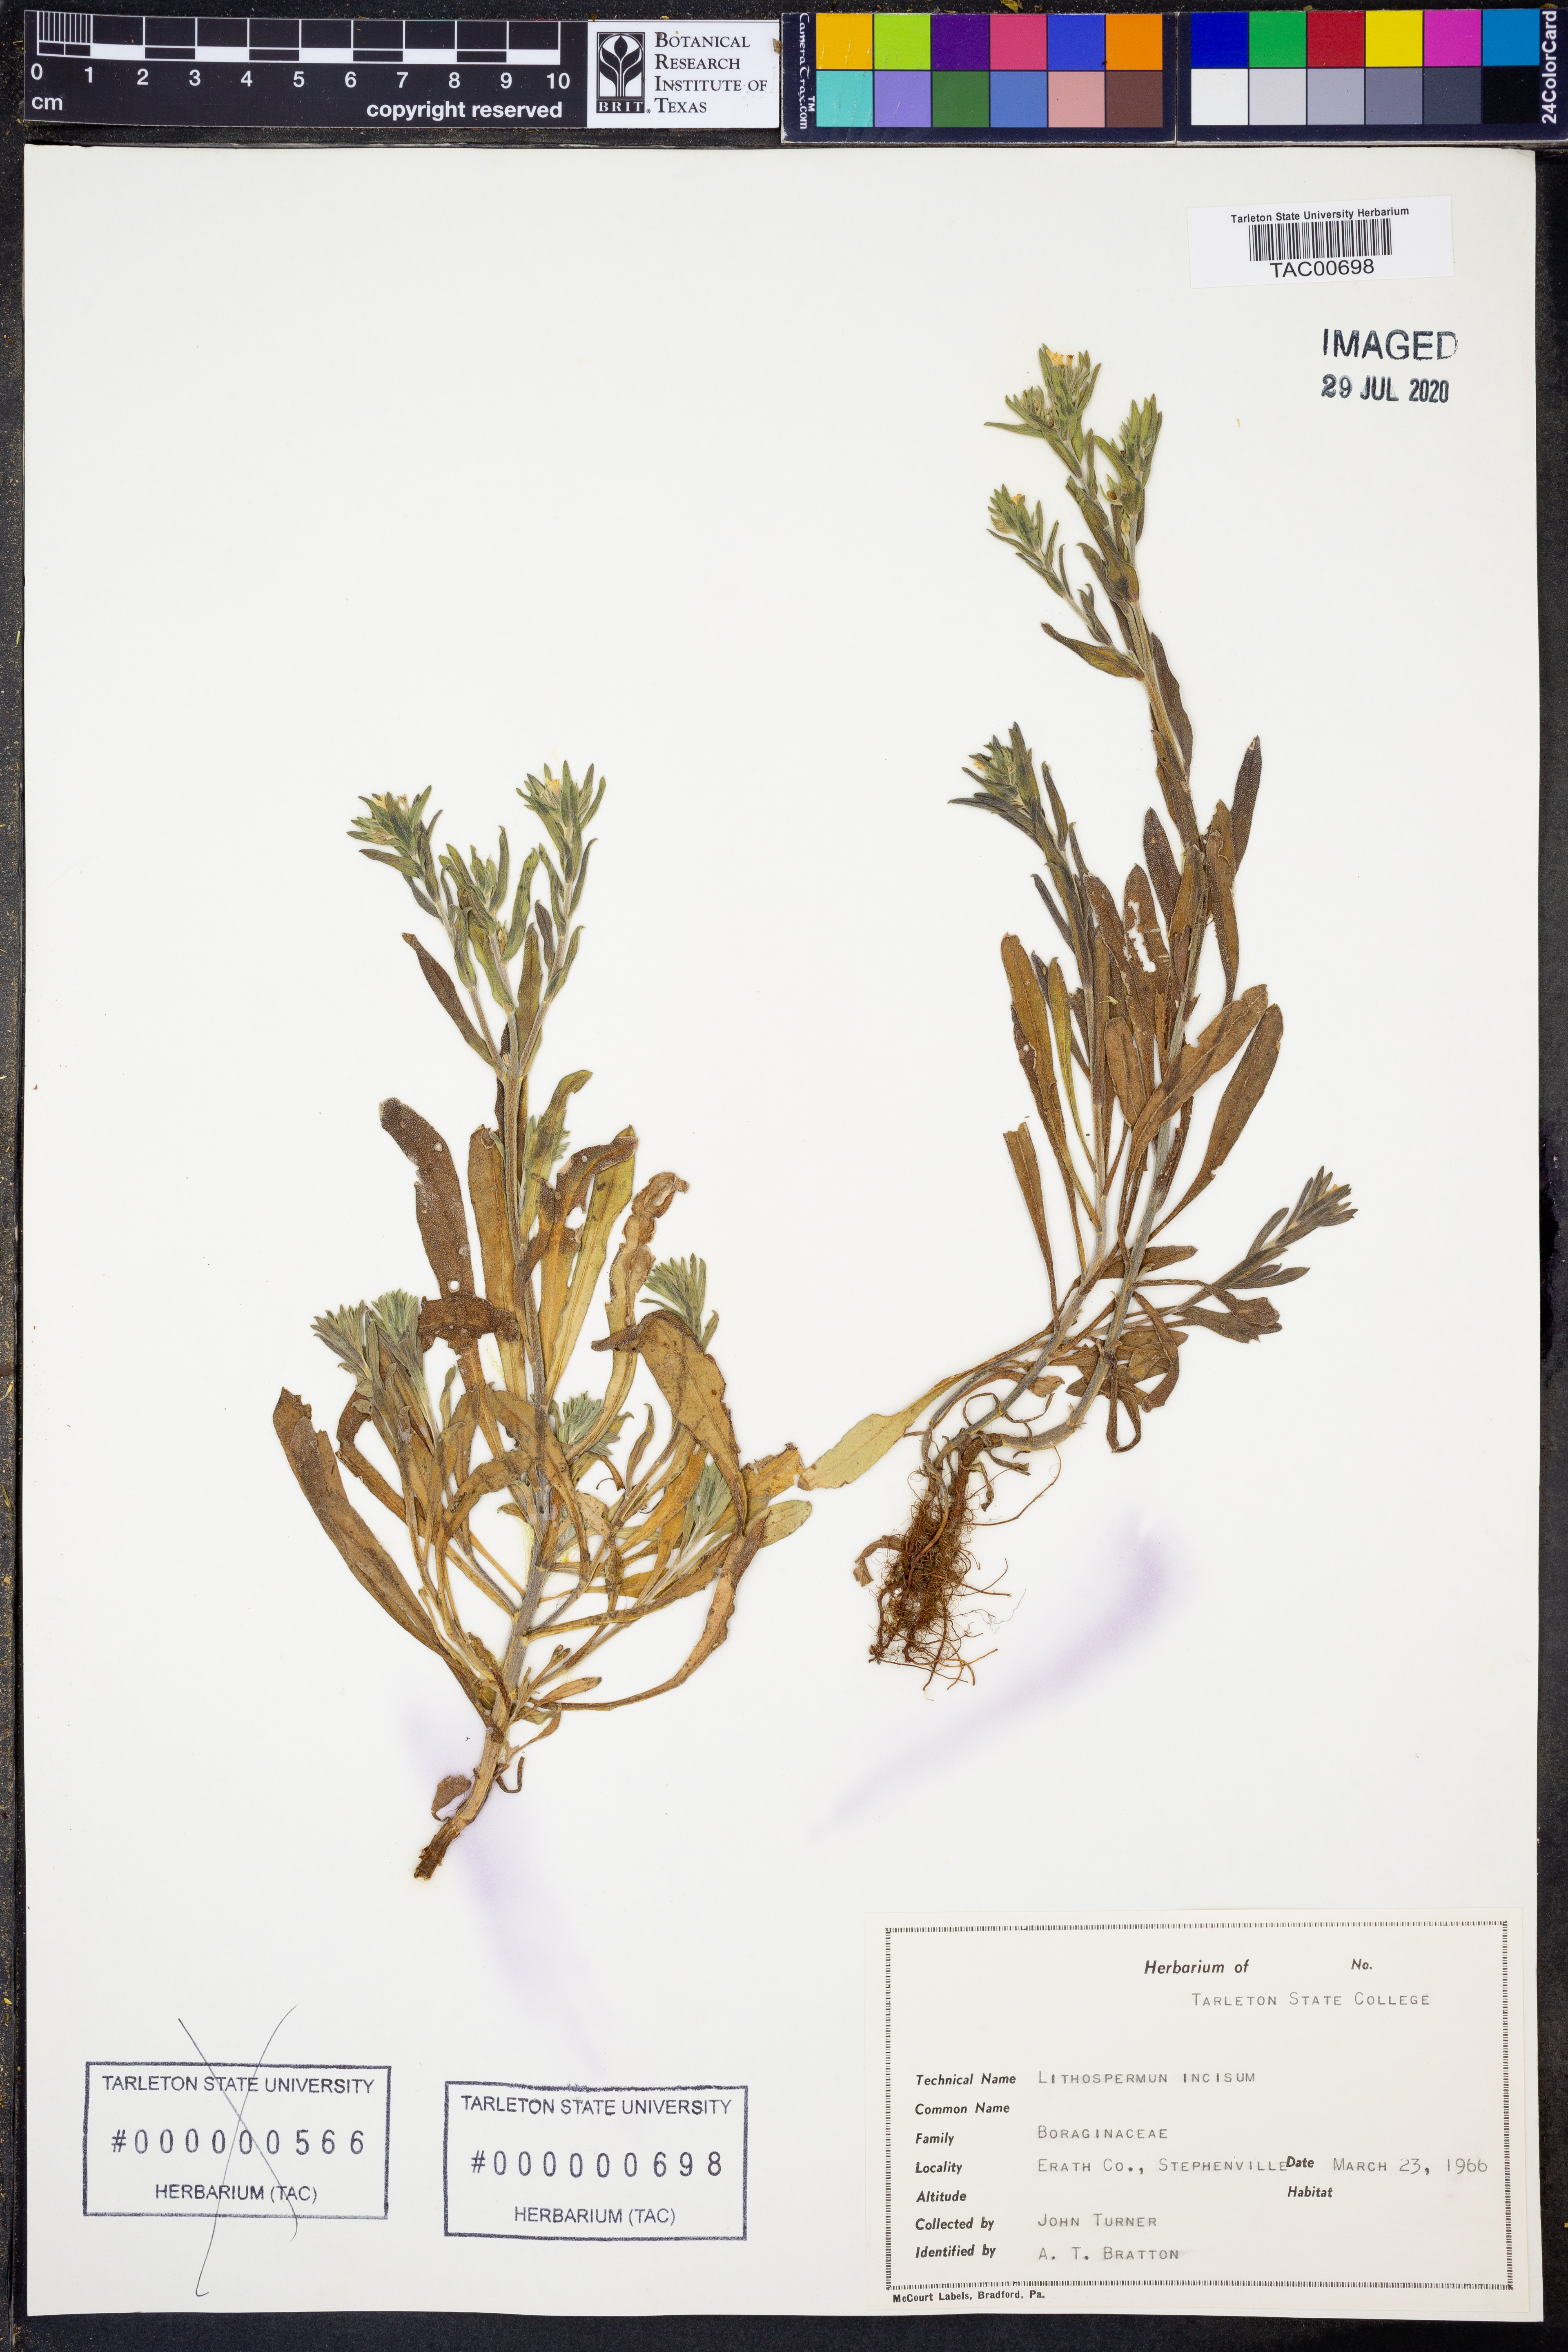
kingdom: Plantae
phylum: Tracheophyta
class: Magnoliopsida
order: Boraginales
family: Boraginaceae
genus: Lithospermum
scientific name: Lithospermum incisum
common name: Fringed gromwell
